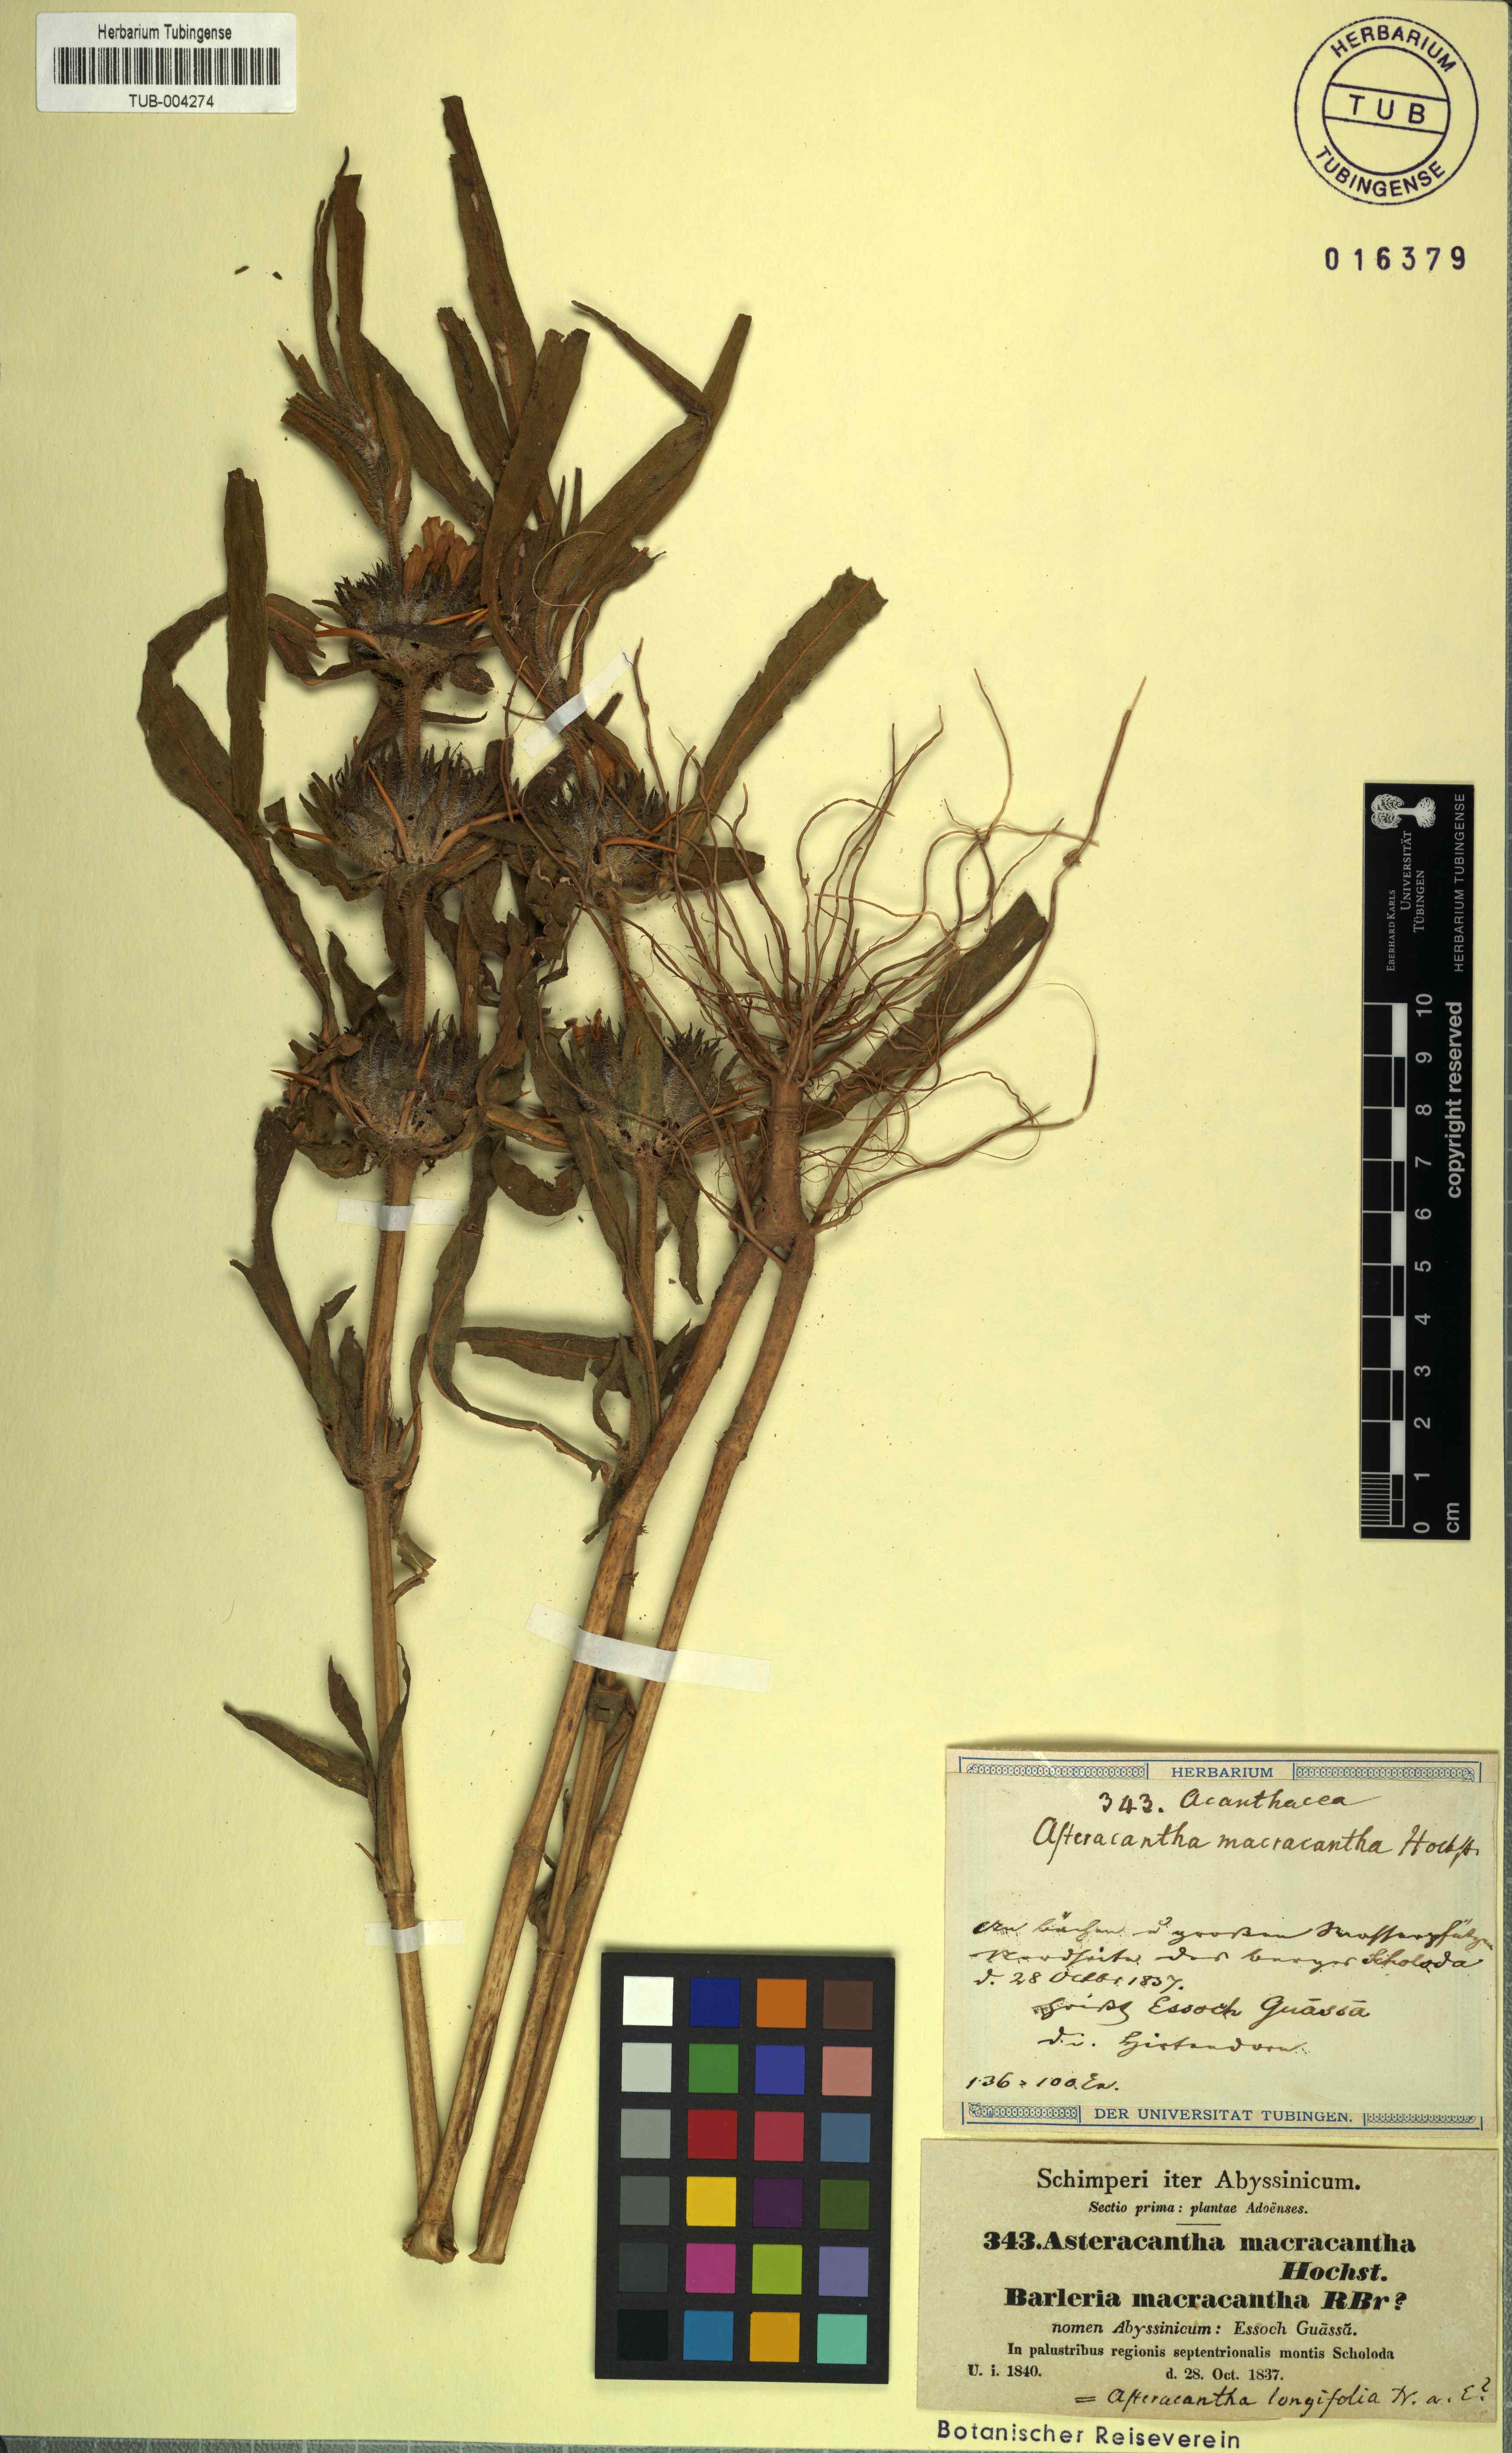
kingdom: Plantae
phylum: Tracheophyta
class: Magnoliopsida
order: Lamiales
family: Acanthaceae
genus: Hygrophila
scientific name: Hygrophila auriculata
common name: Hygrophila
